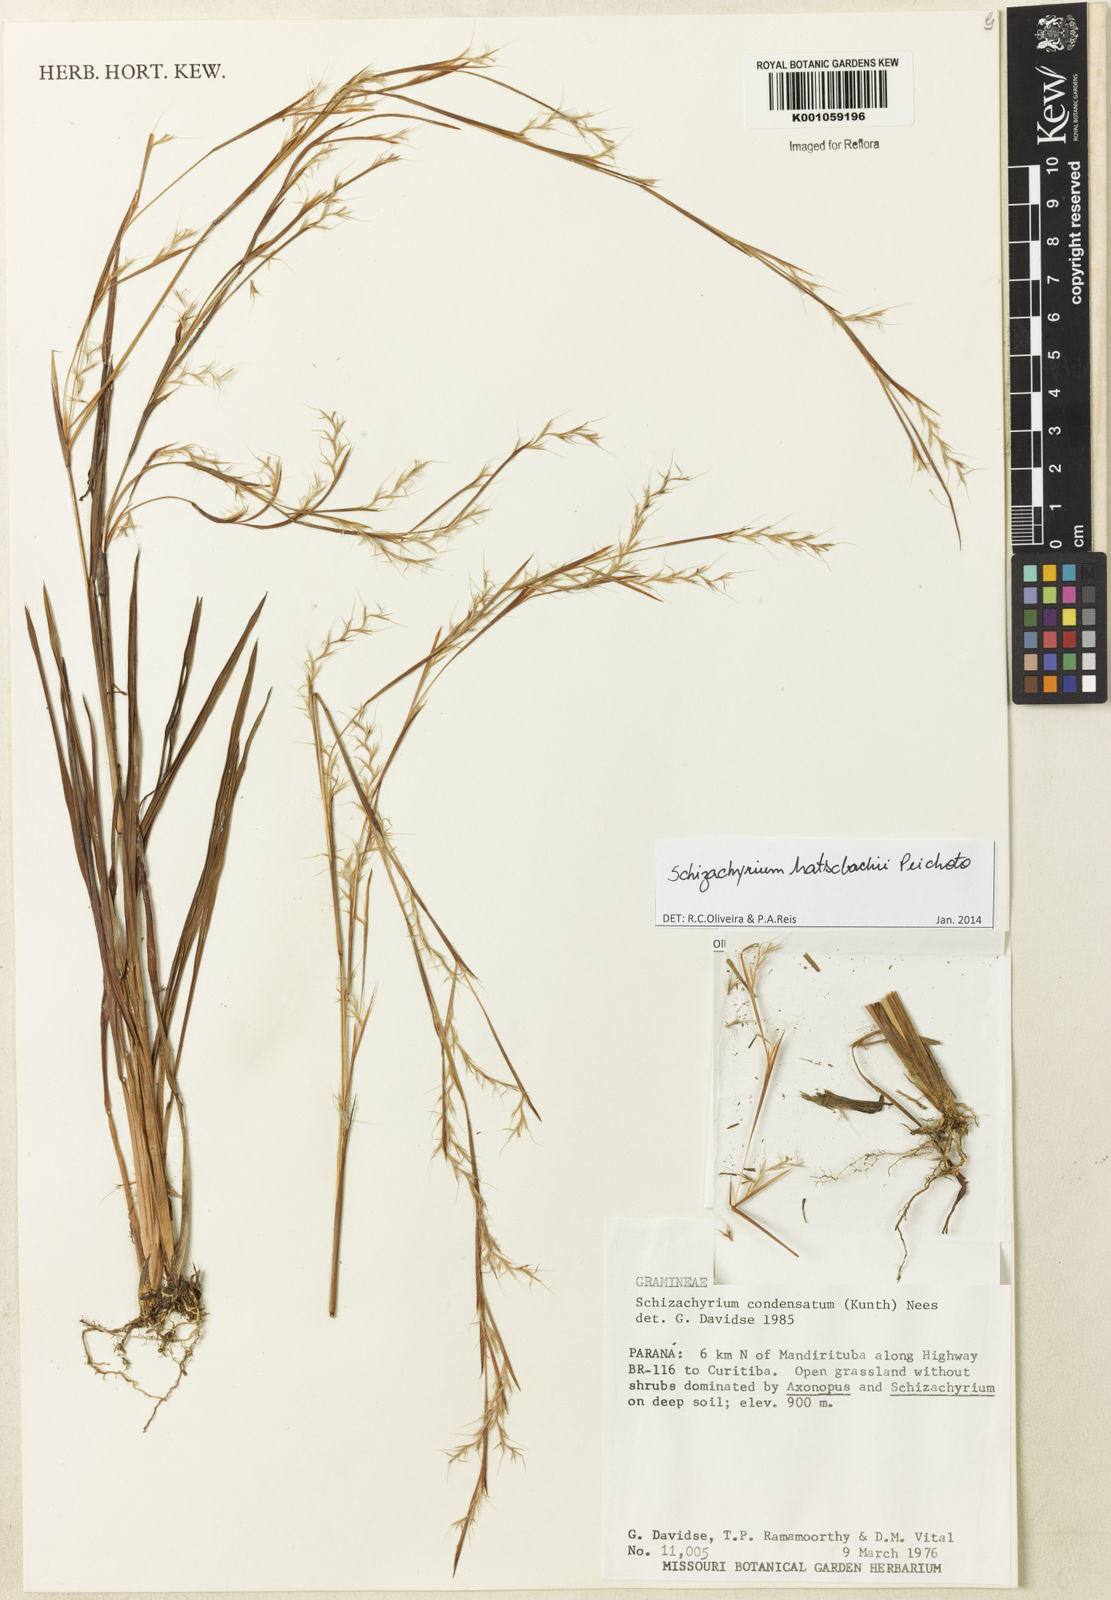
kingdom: Plantae
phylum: Tracheophyta
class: Liliopsida
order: Poales
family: Poaceae
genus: Schizachyrium
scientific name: Schizachyrium hatschbachii
